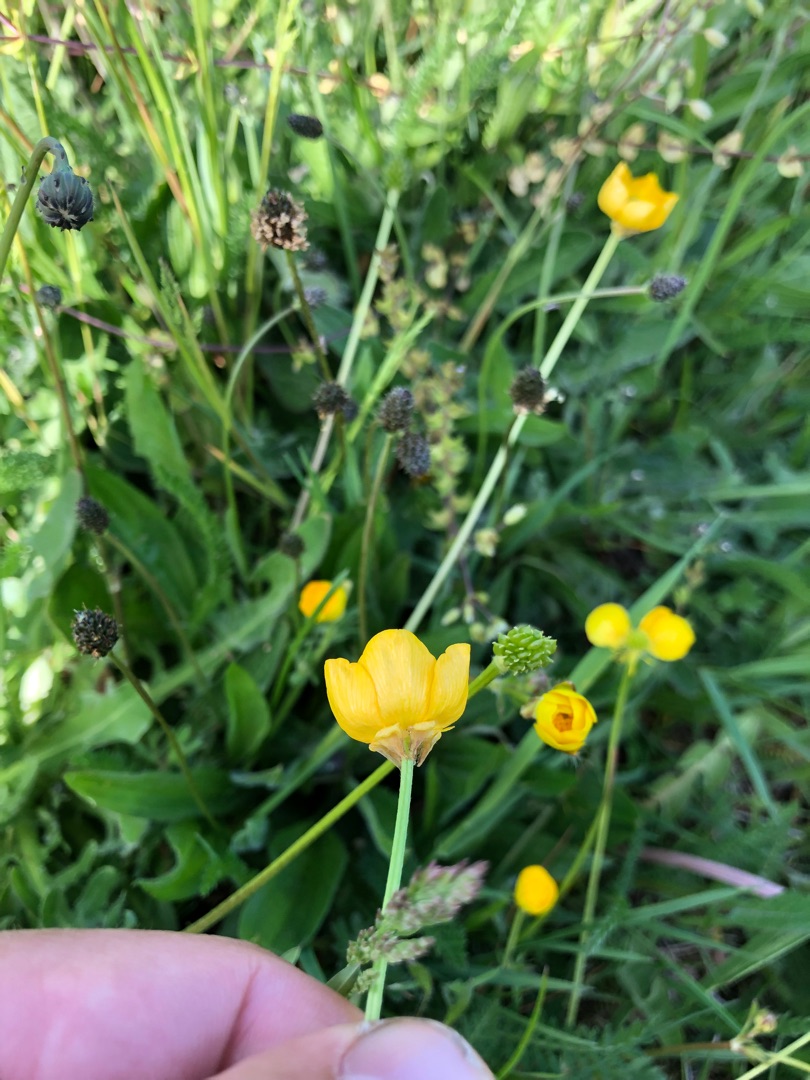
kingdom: Plantae
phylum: Tracheophyta
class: Magnoliopsida
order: Ranunculales
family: Ranunculaceae
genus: Ranunculus
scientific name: Ranunculus bulbosus
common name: Knold-ranunkel
